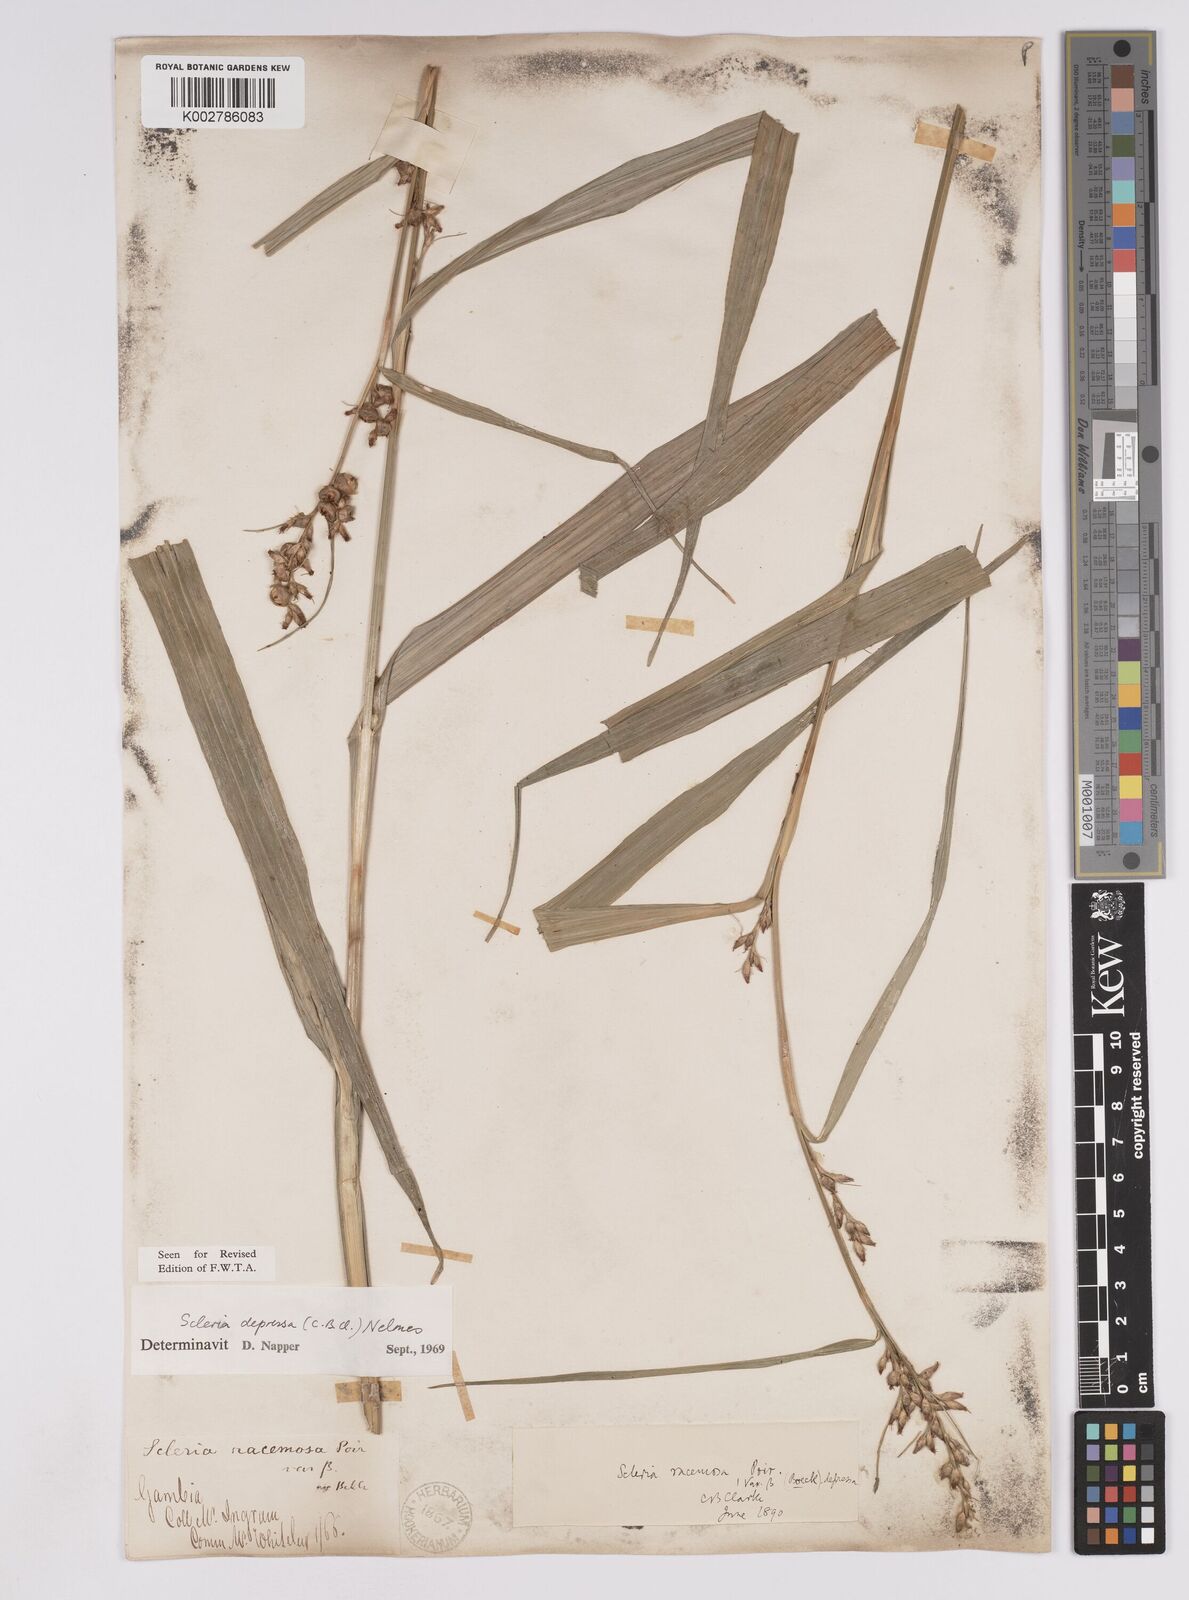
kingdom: Plantae
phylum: Tracheophyta
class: Liliopsida
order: Poales
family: Cyperaceae
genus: Scleria
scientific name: Scleria depressa
